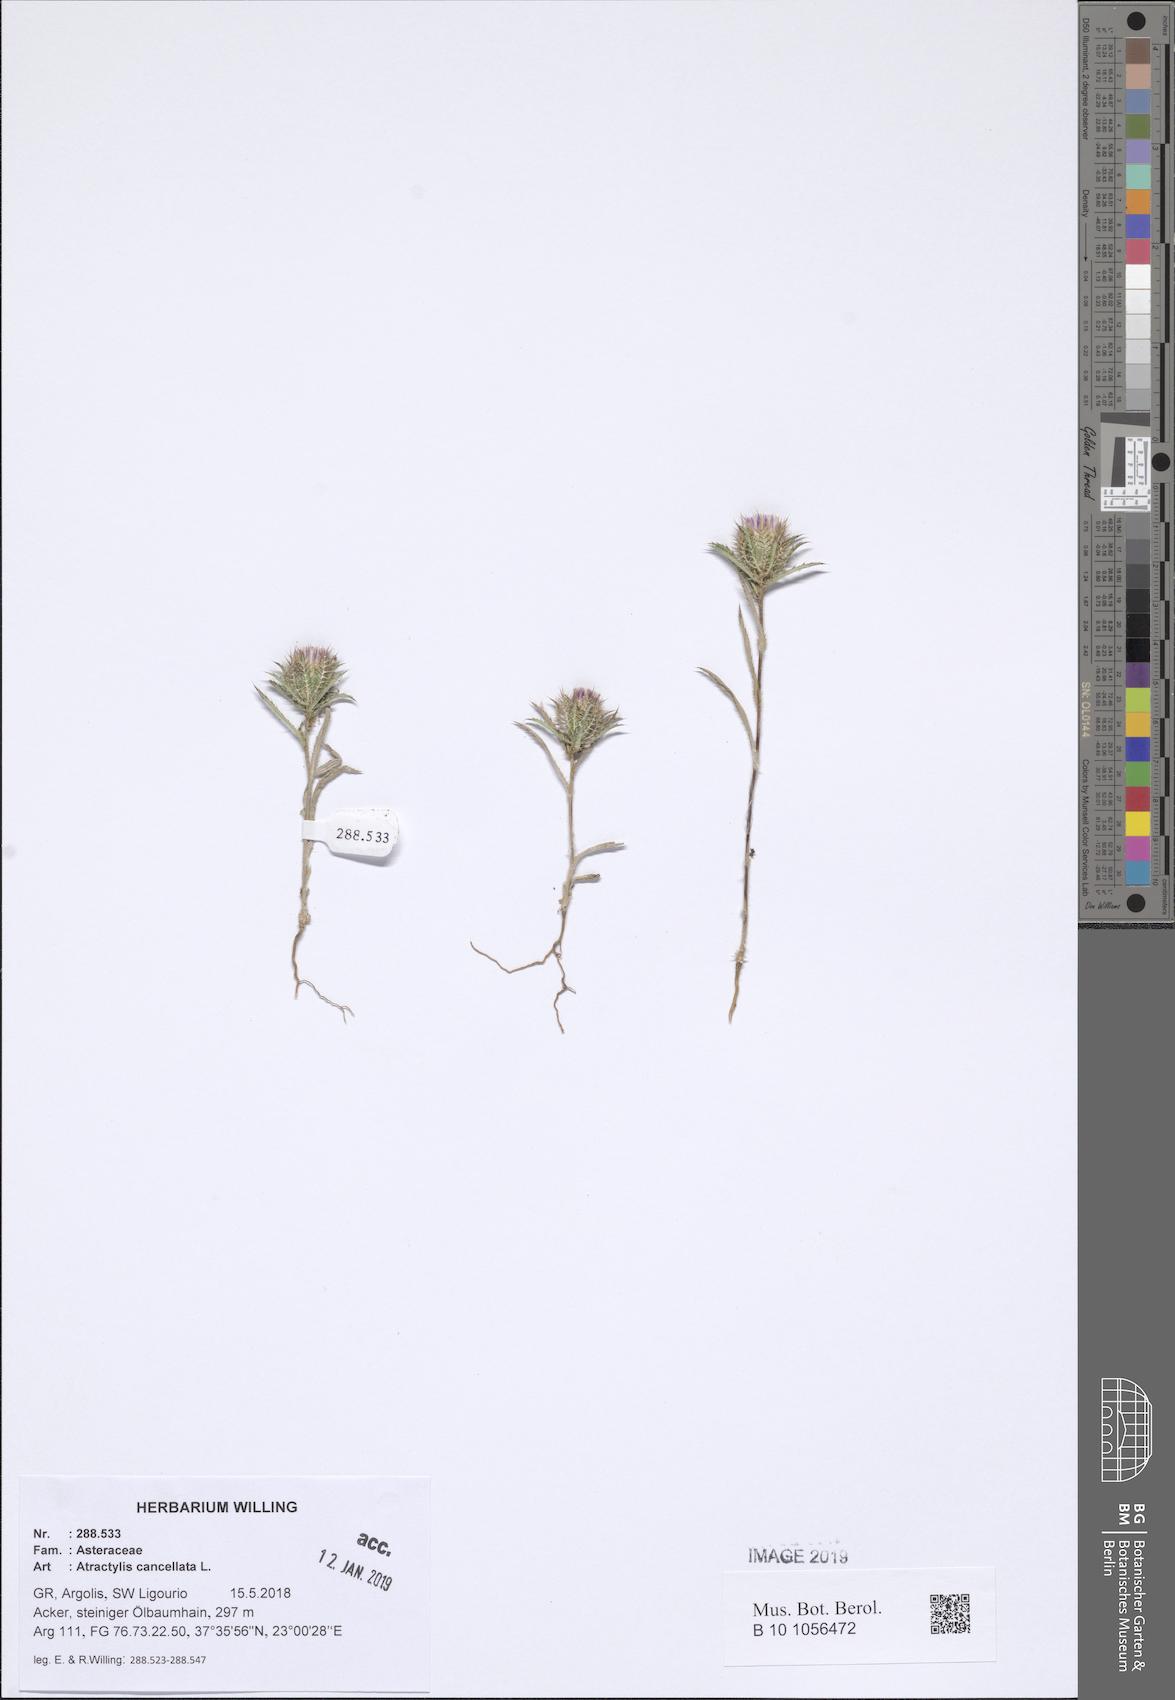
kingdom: Plantae
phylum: Tracheophyta
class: Magnoliopsida
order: Asterales
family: Asteraceae
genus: Atractylis
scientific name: Atractylis cancellata
